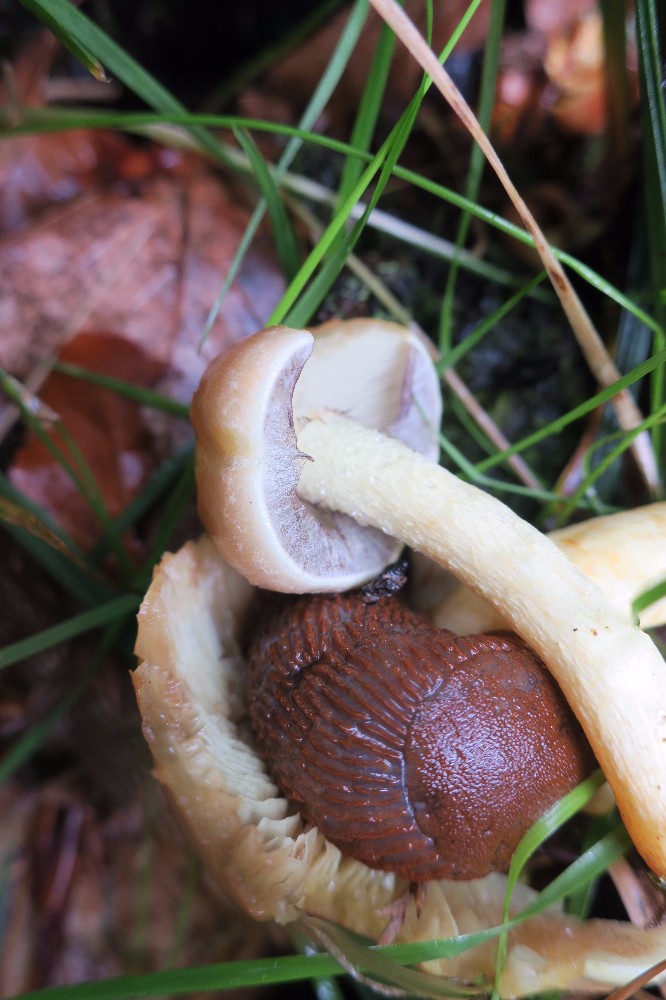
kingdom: Fungi
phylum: Basidiomycota
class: Agaricomycetes
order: Agaricales
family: Strophariaceae
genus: Hypholoma
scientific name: Hypholoma fasciculare
